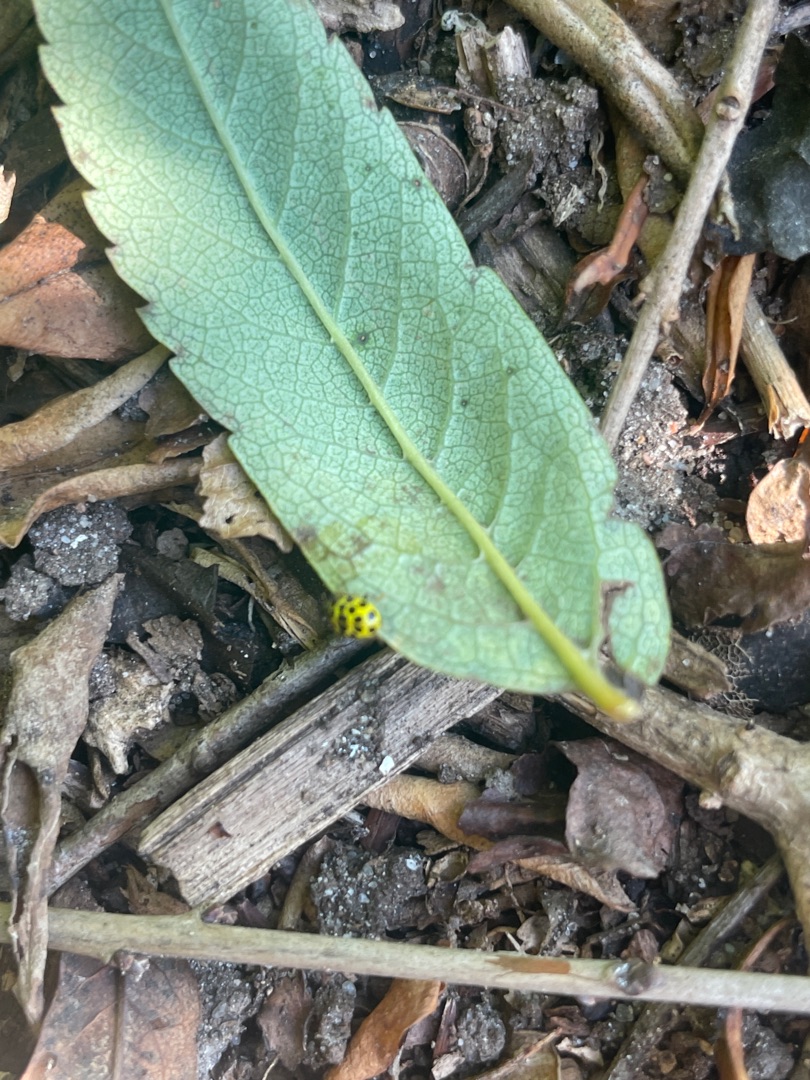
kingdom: Animalia
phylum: Arthropoda
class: Insecta
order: Coleoptera
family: Coccinellidae
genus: Psyllobora
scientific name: Psyllobora vigintiduopunctata
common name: Toogtyveplettet mariehøne
